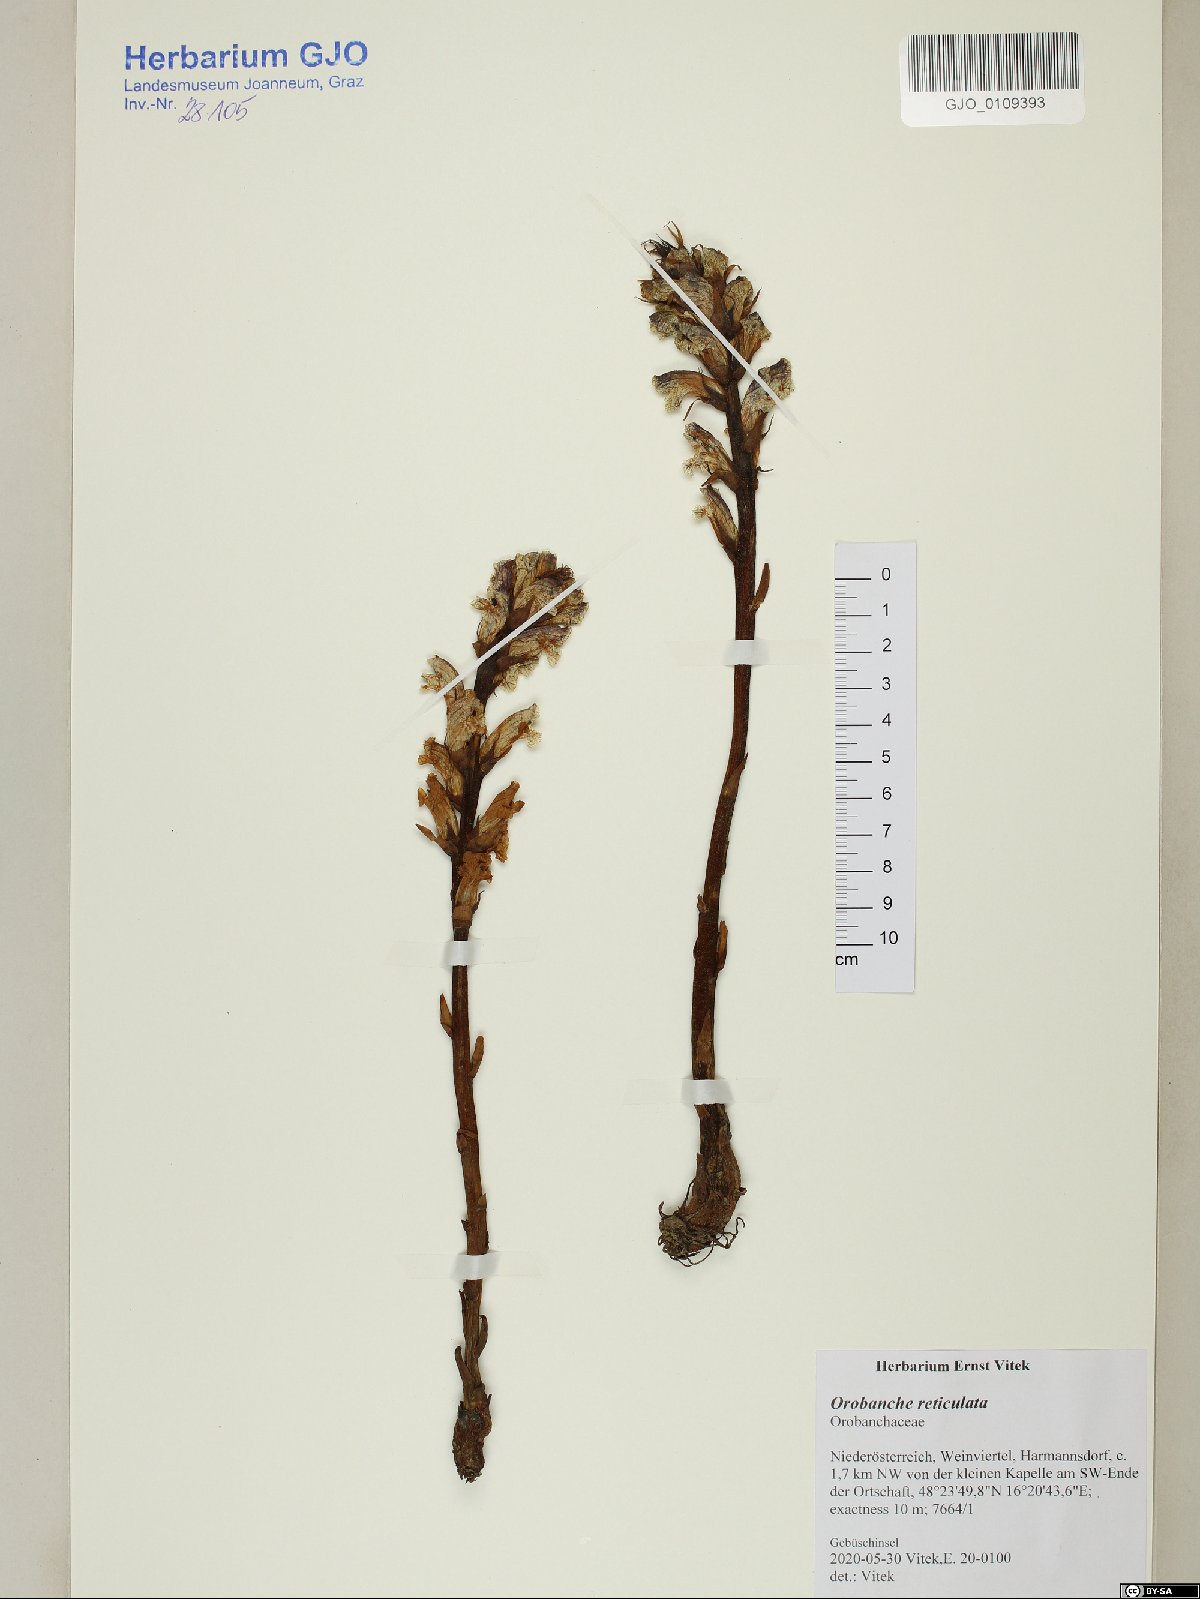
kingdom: Plantae
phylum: Tracheophyta
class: Magnoliopsida
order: Lamiales
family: Orobanchaceae
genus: Orobanche
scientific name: Orobanche reticulata
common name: Thistle broomrape
